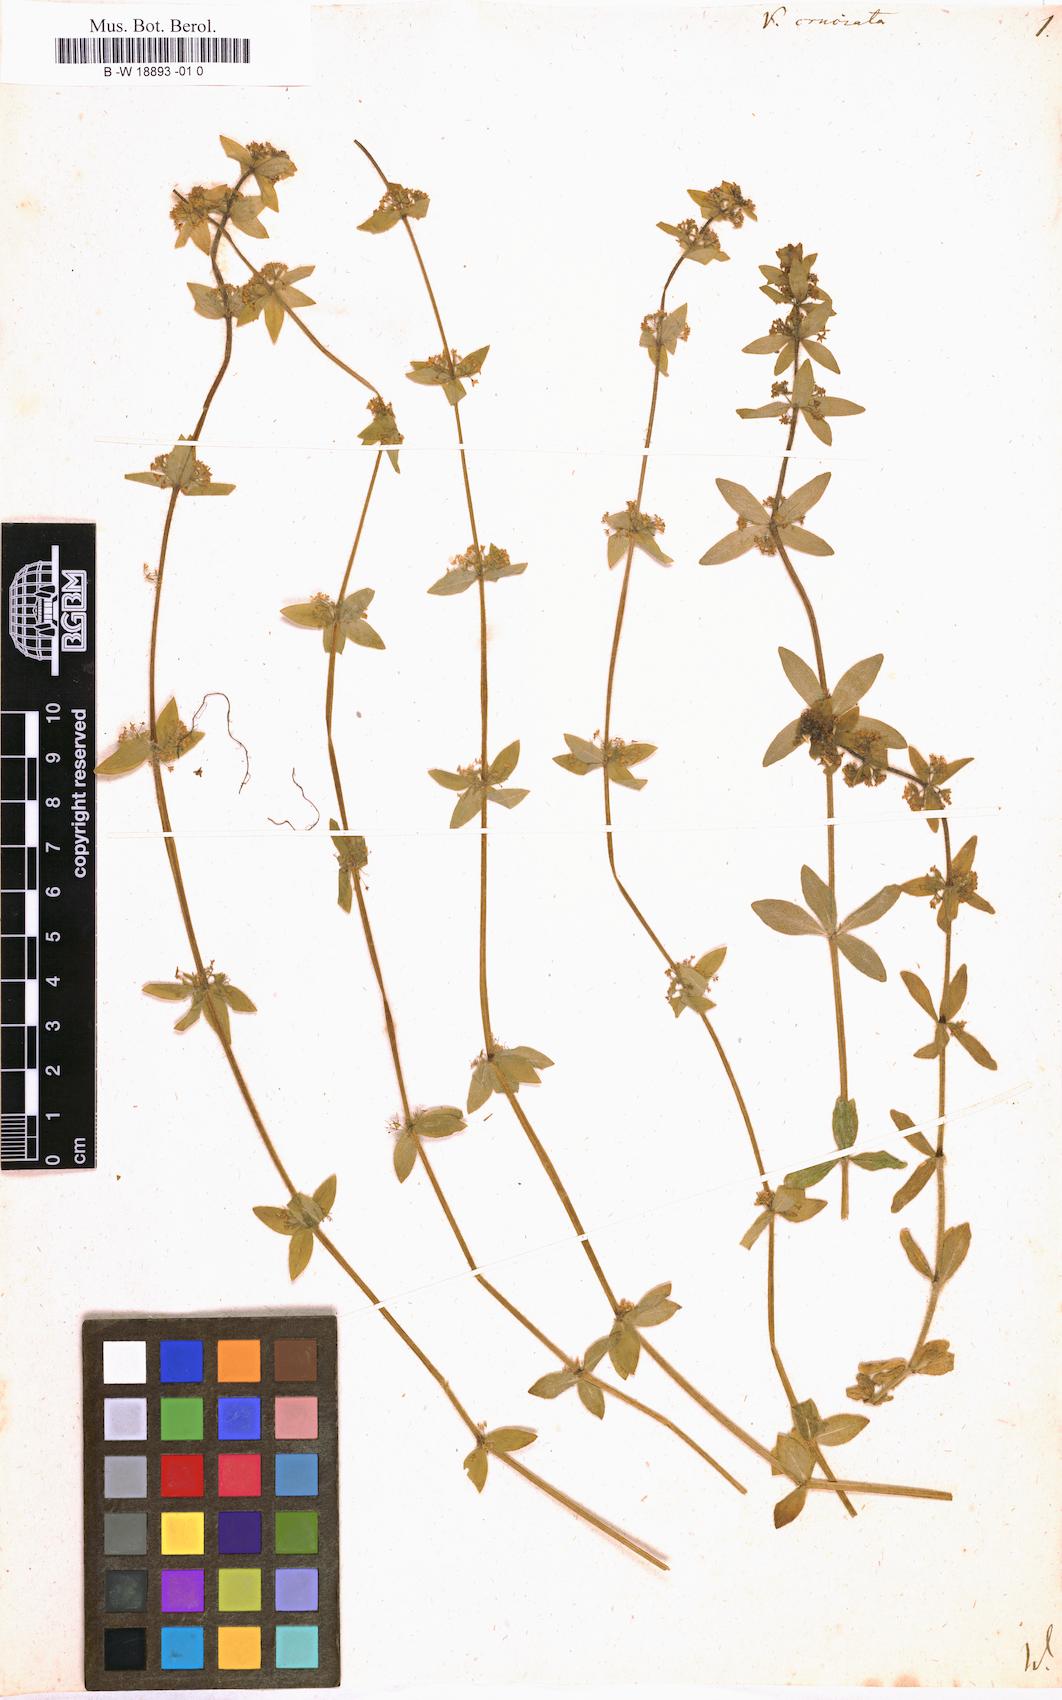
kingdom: Plantae
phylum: Tracheophyta
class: Magnoliopsida
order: Gentianales
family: Rubiaceae
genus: Cruciata
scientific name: Cruciata laevipes
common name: Crosswort
